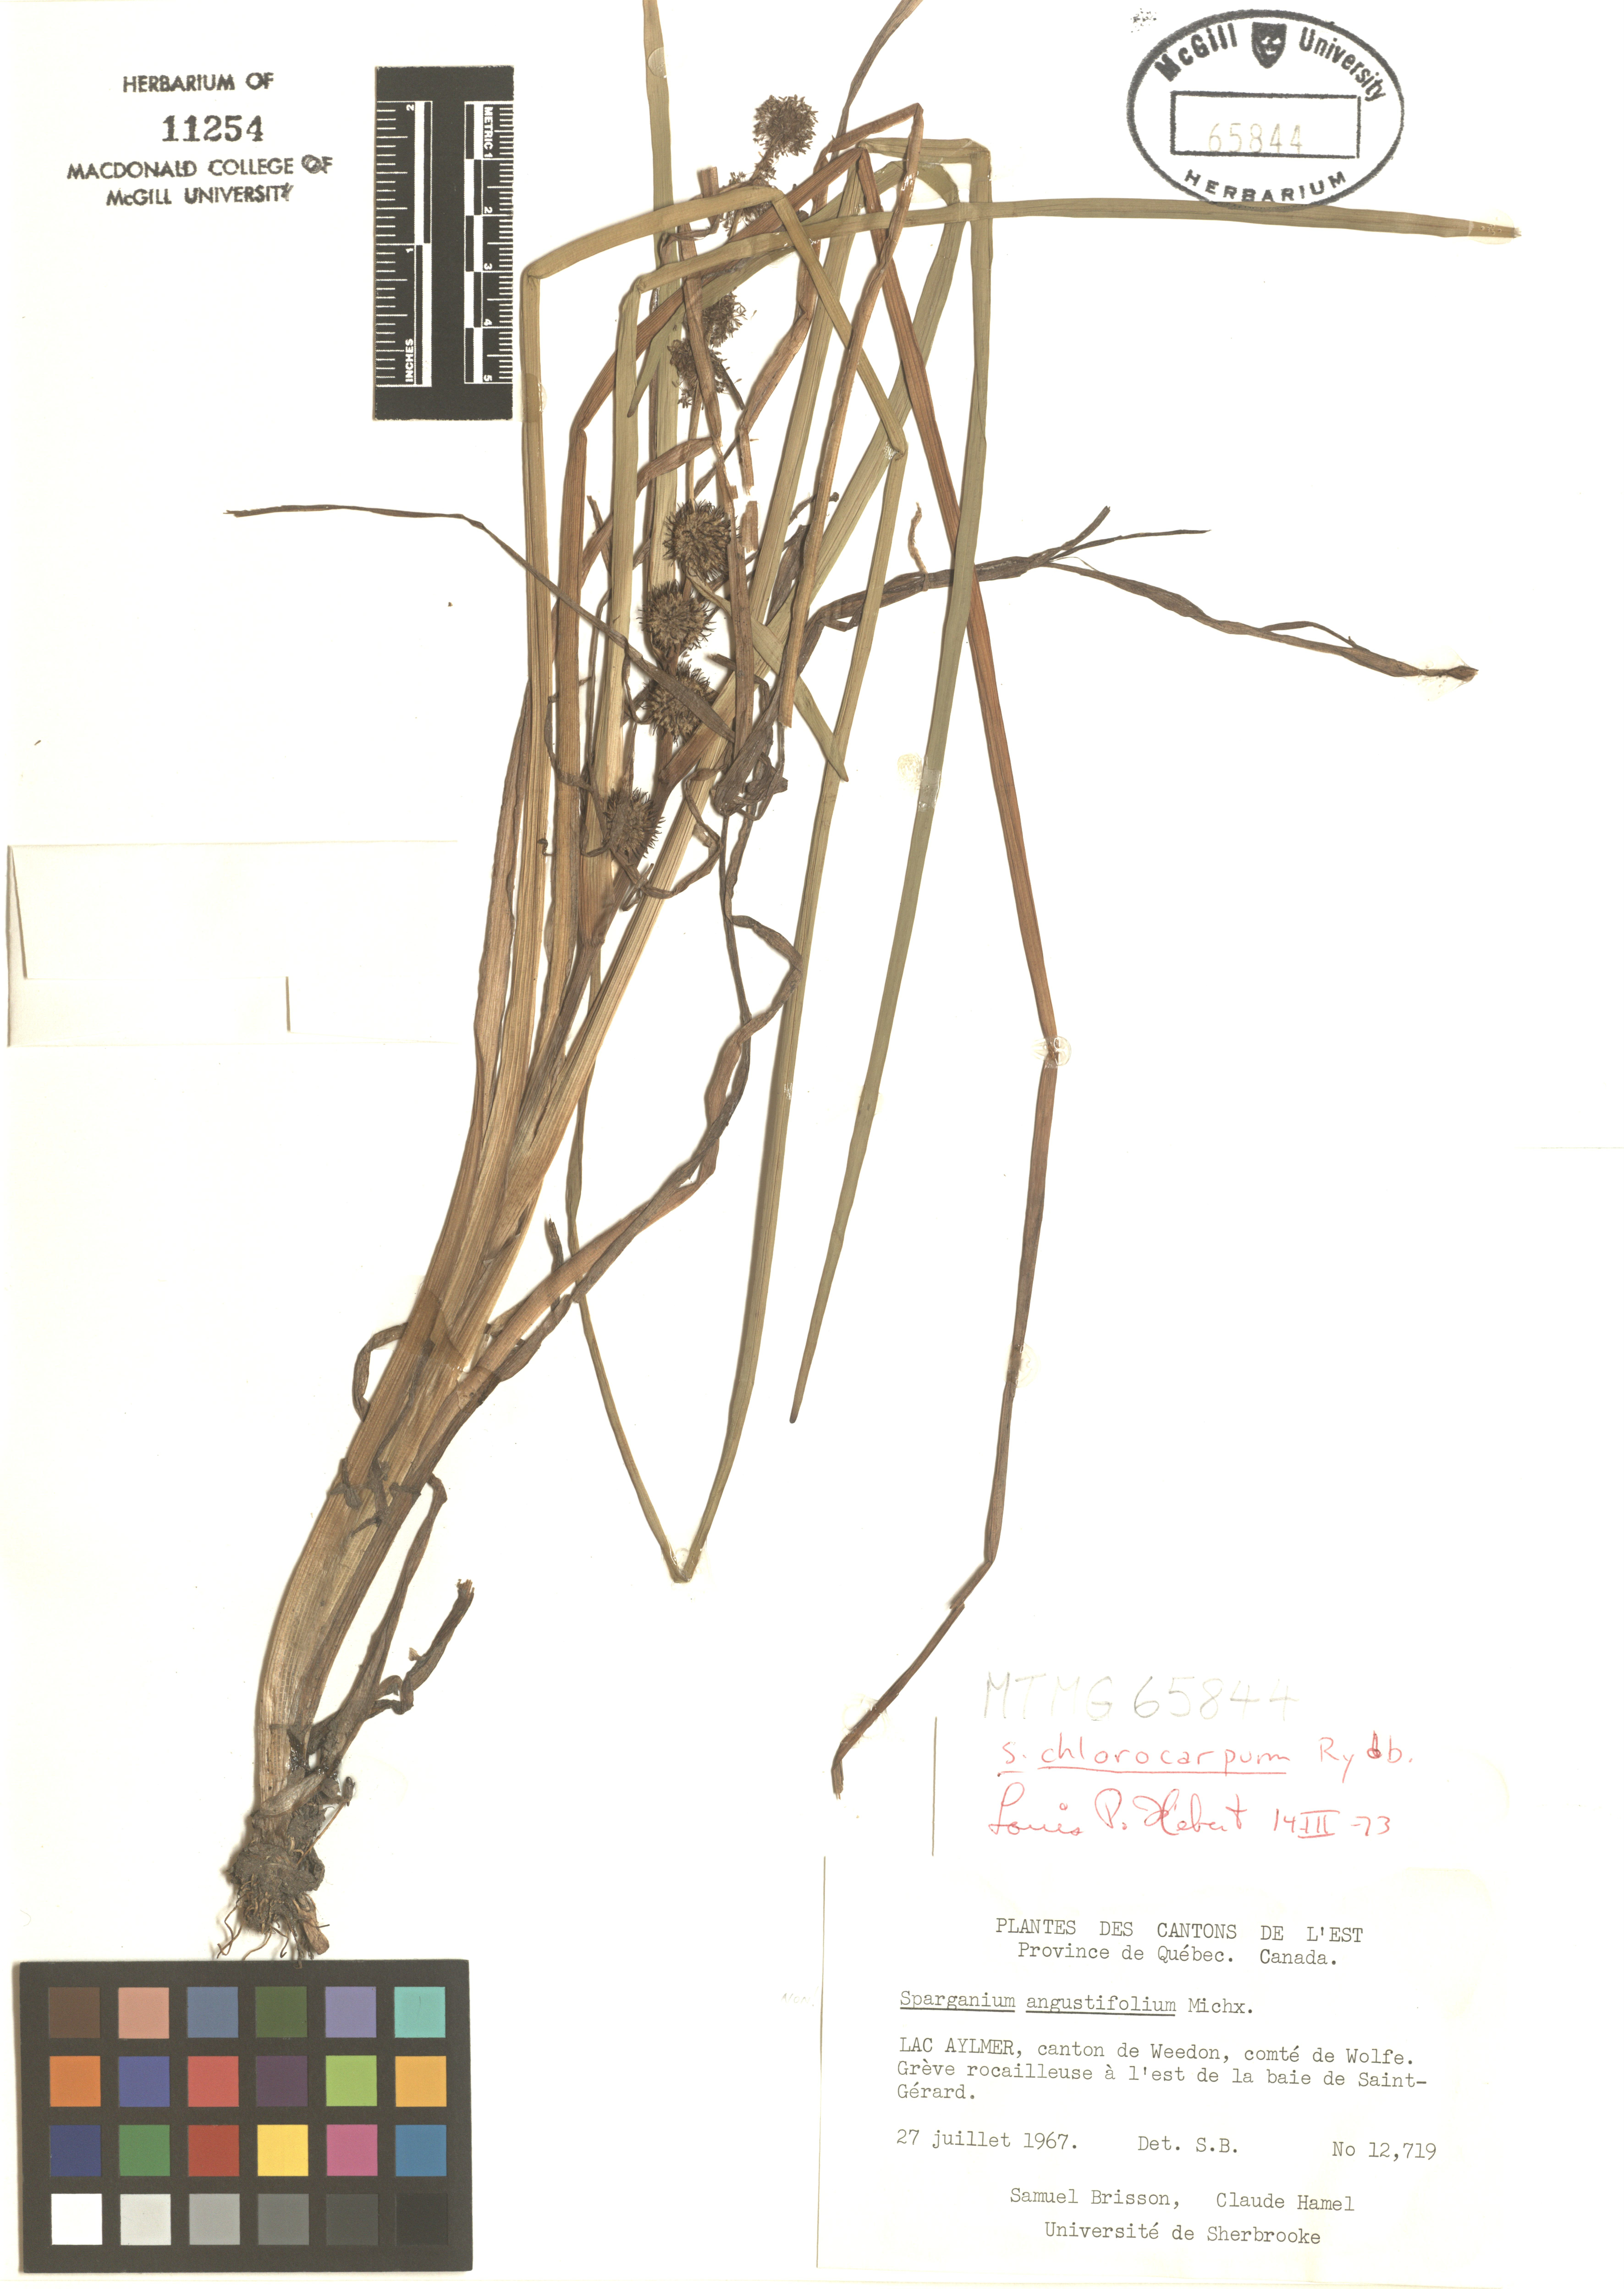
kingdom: Plantae
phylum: Tracheophyta
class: Liliopsida
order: Poales
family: Typhaceae
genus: Sparganium
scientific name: Sparganium emersum
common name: Unbranched bur-reed
